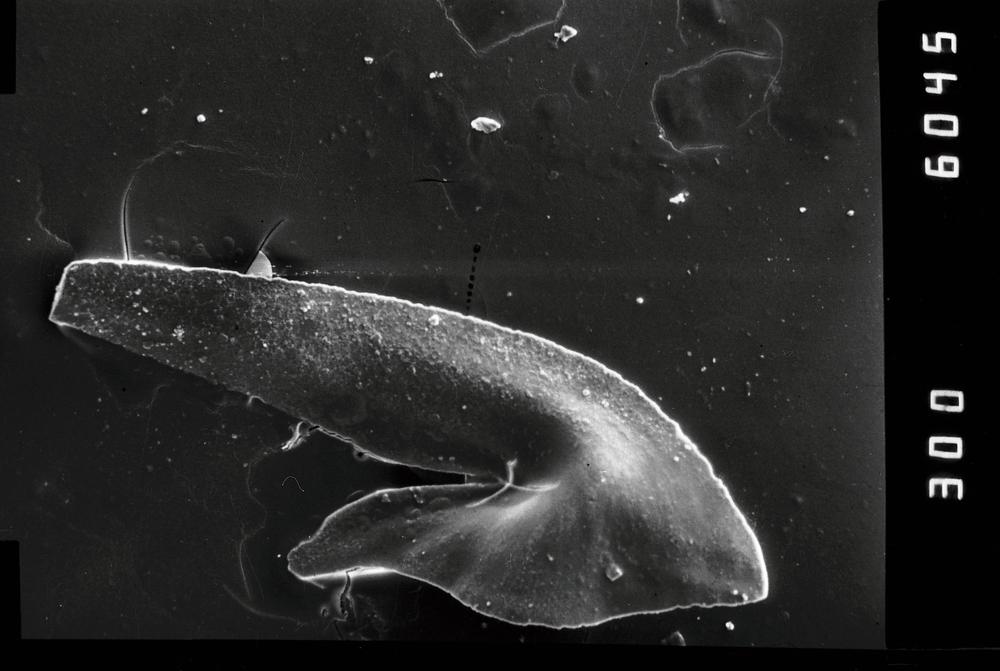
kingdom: Animalia
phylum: Chordata
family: Oistodontidae
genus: Oistodus
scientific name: Oistodus lanceolatus
